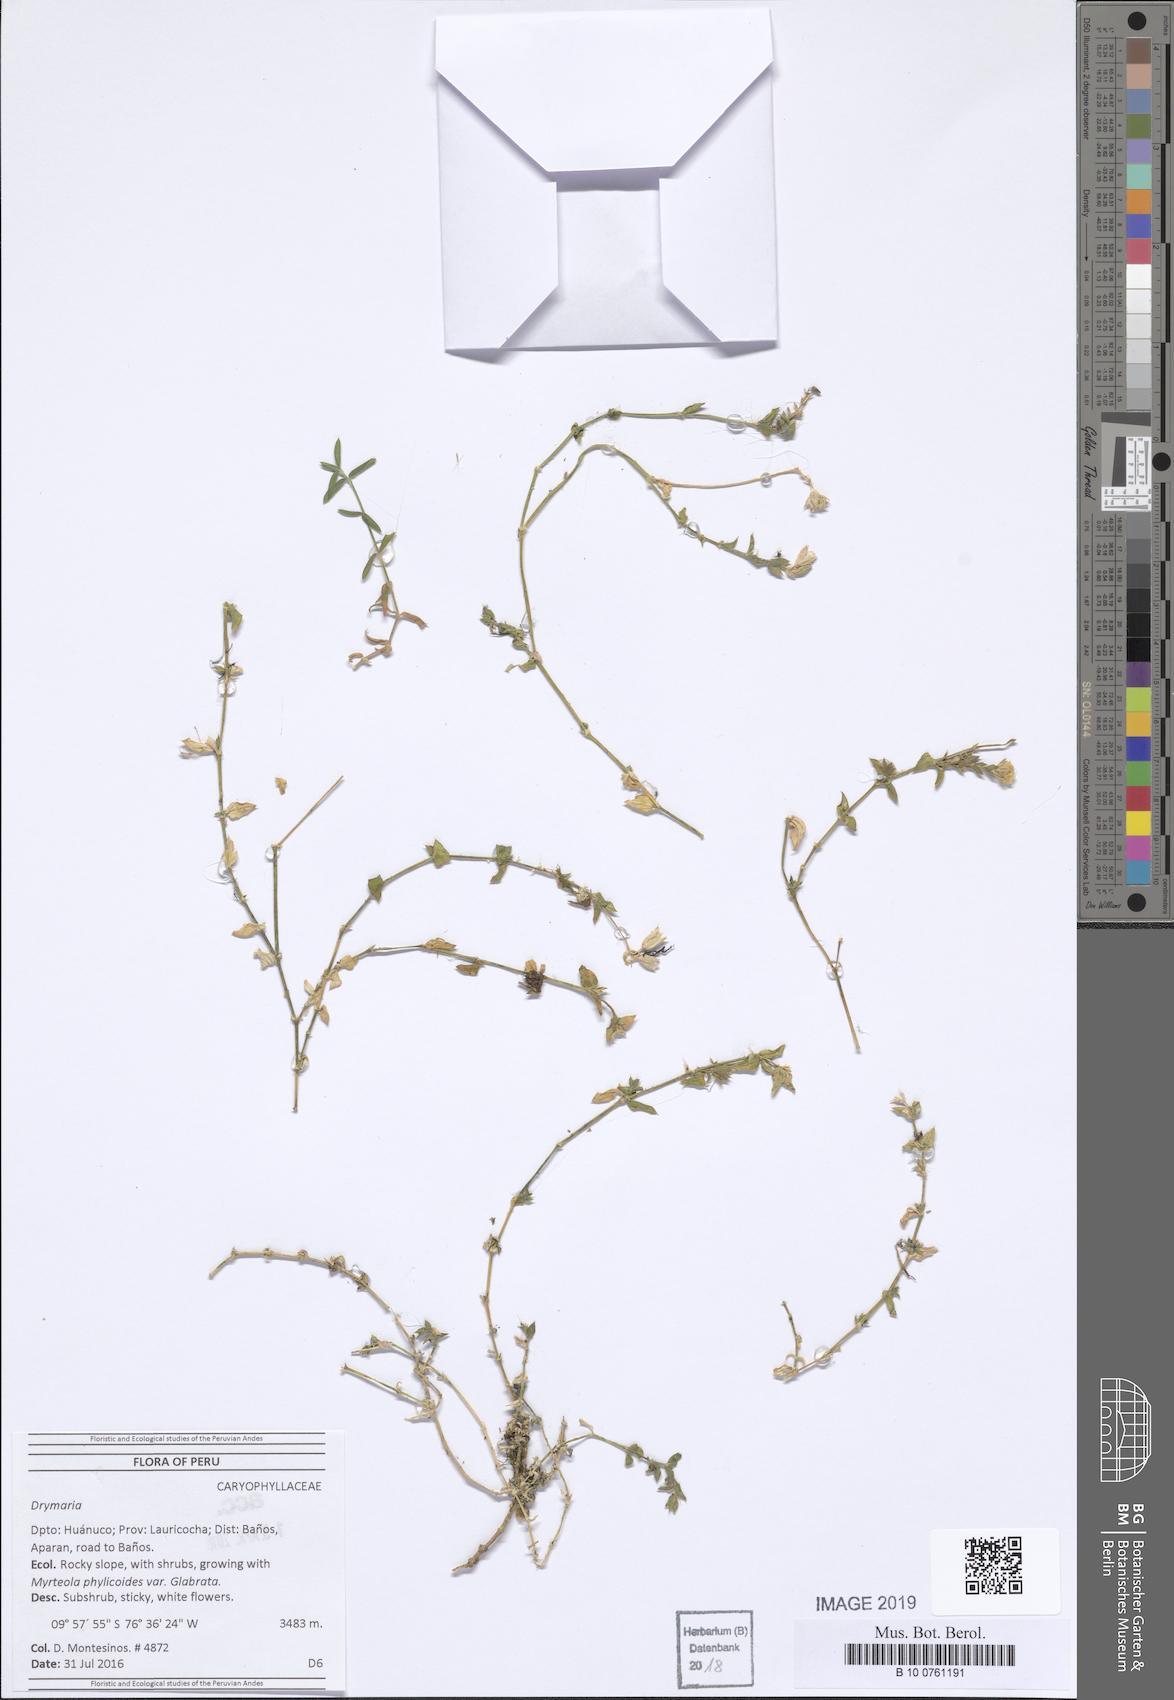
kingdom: Plantae
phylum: Tracheophyta
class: Magnoliopsida
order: Caryophyllales
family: Caryophyllaceae
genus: Drymaria
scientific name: Drymaria
